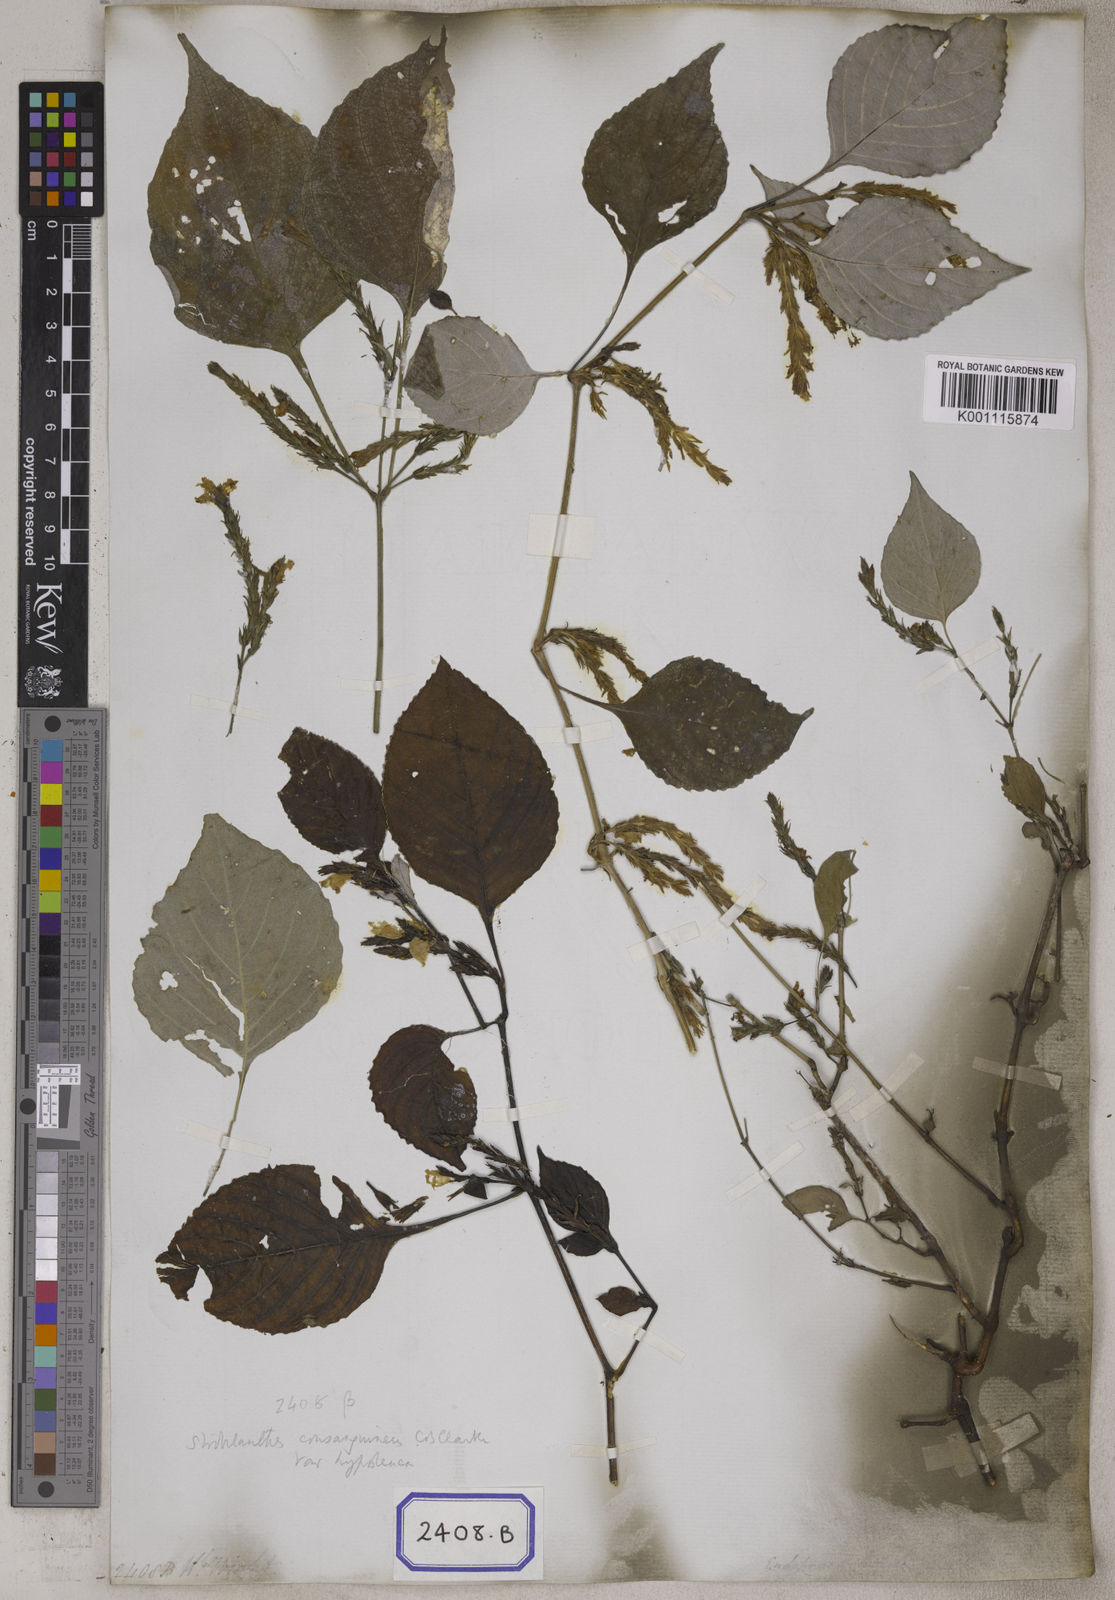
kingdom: Plantae
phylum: Tracheophyta
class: Magnoliopsida
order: Lamiales
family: Acanthaceae
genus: Strobilanthes
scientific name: Strobilanthes consanguinea
